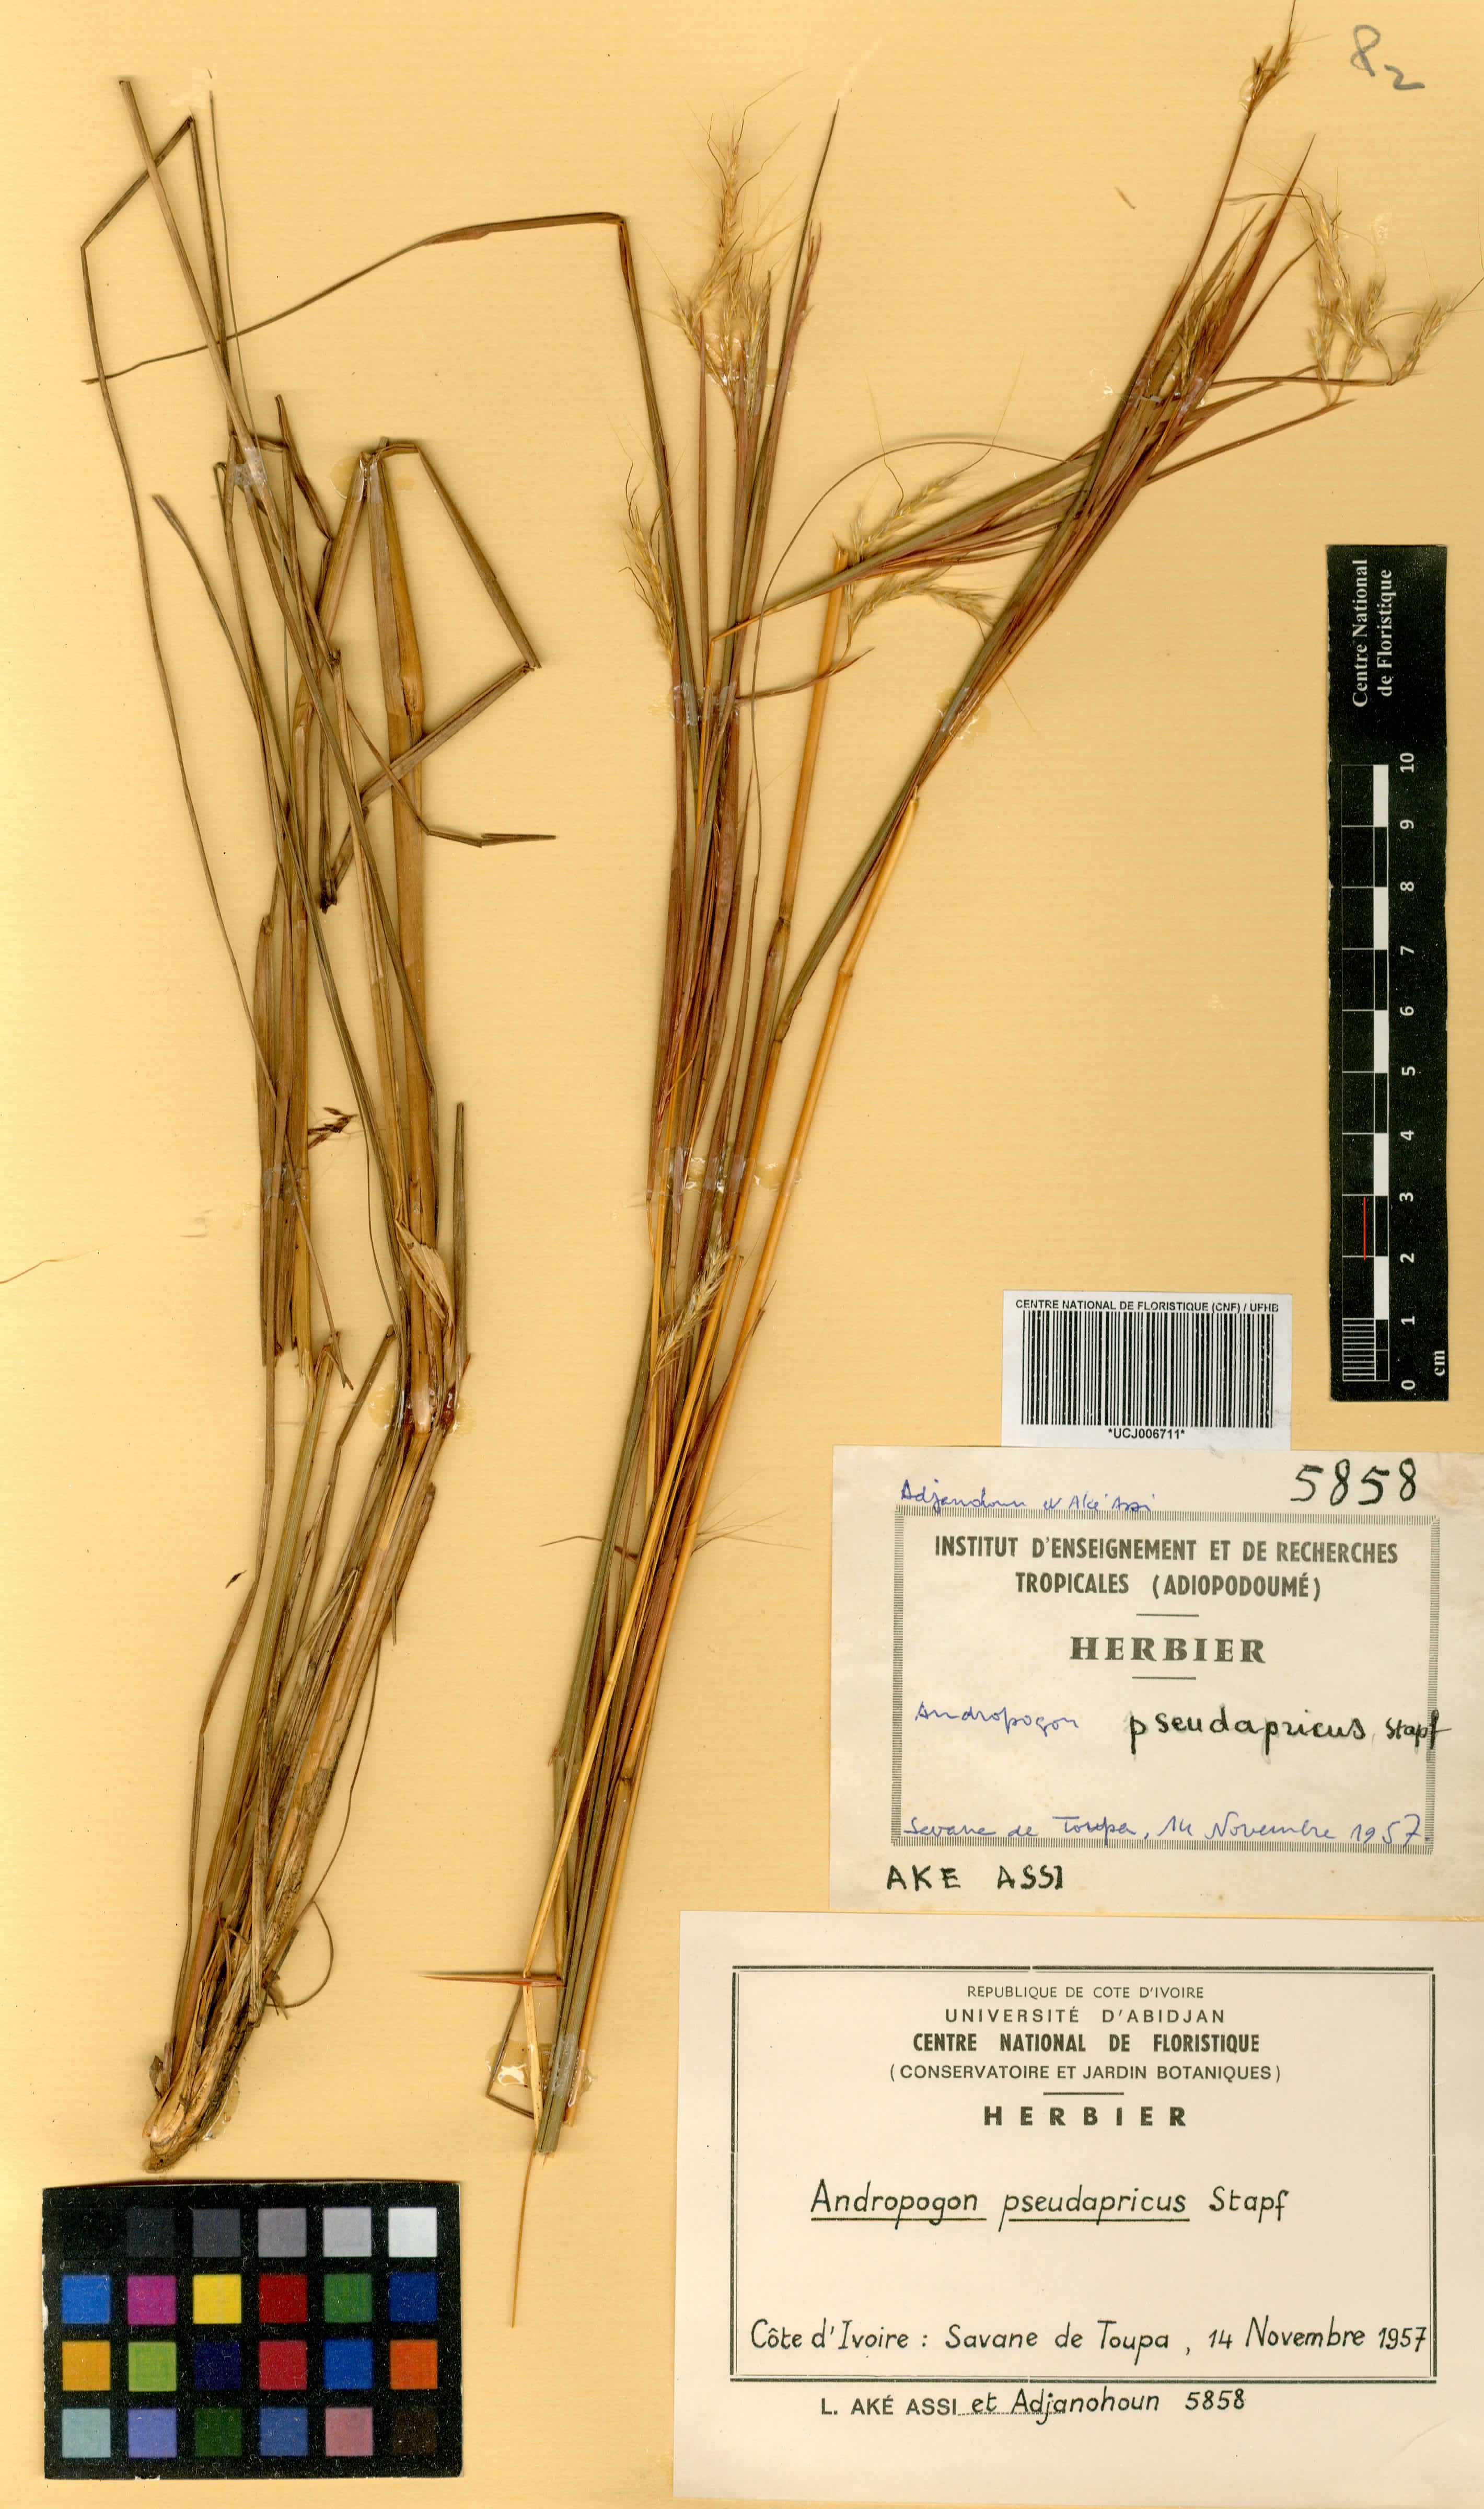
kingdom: Plantae
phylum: Tracheophyta
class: Liliopsida
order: Poales
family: Poaceae
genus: Andropogon
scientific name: Andropogon pseudapricus
